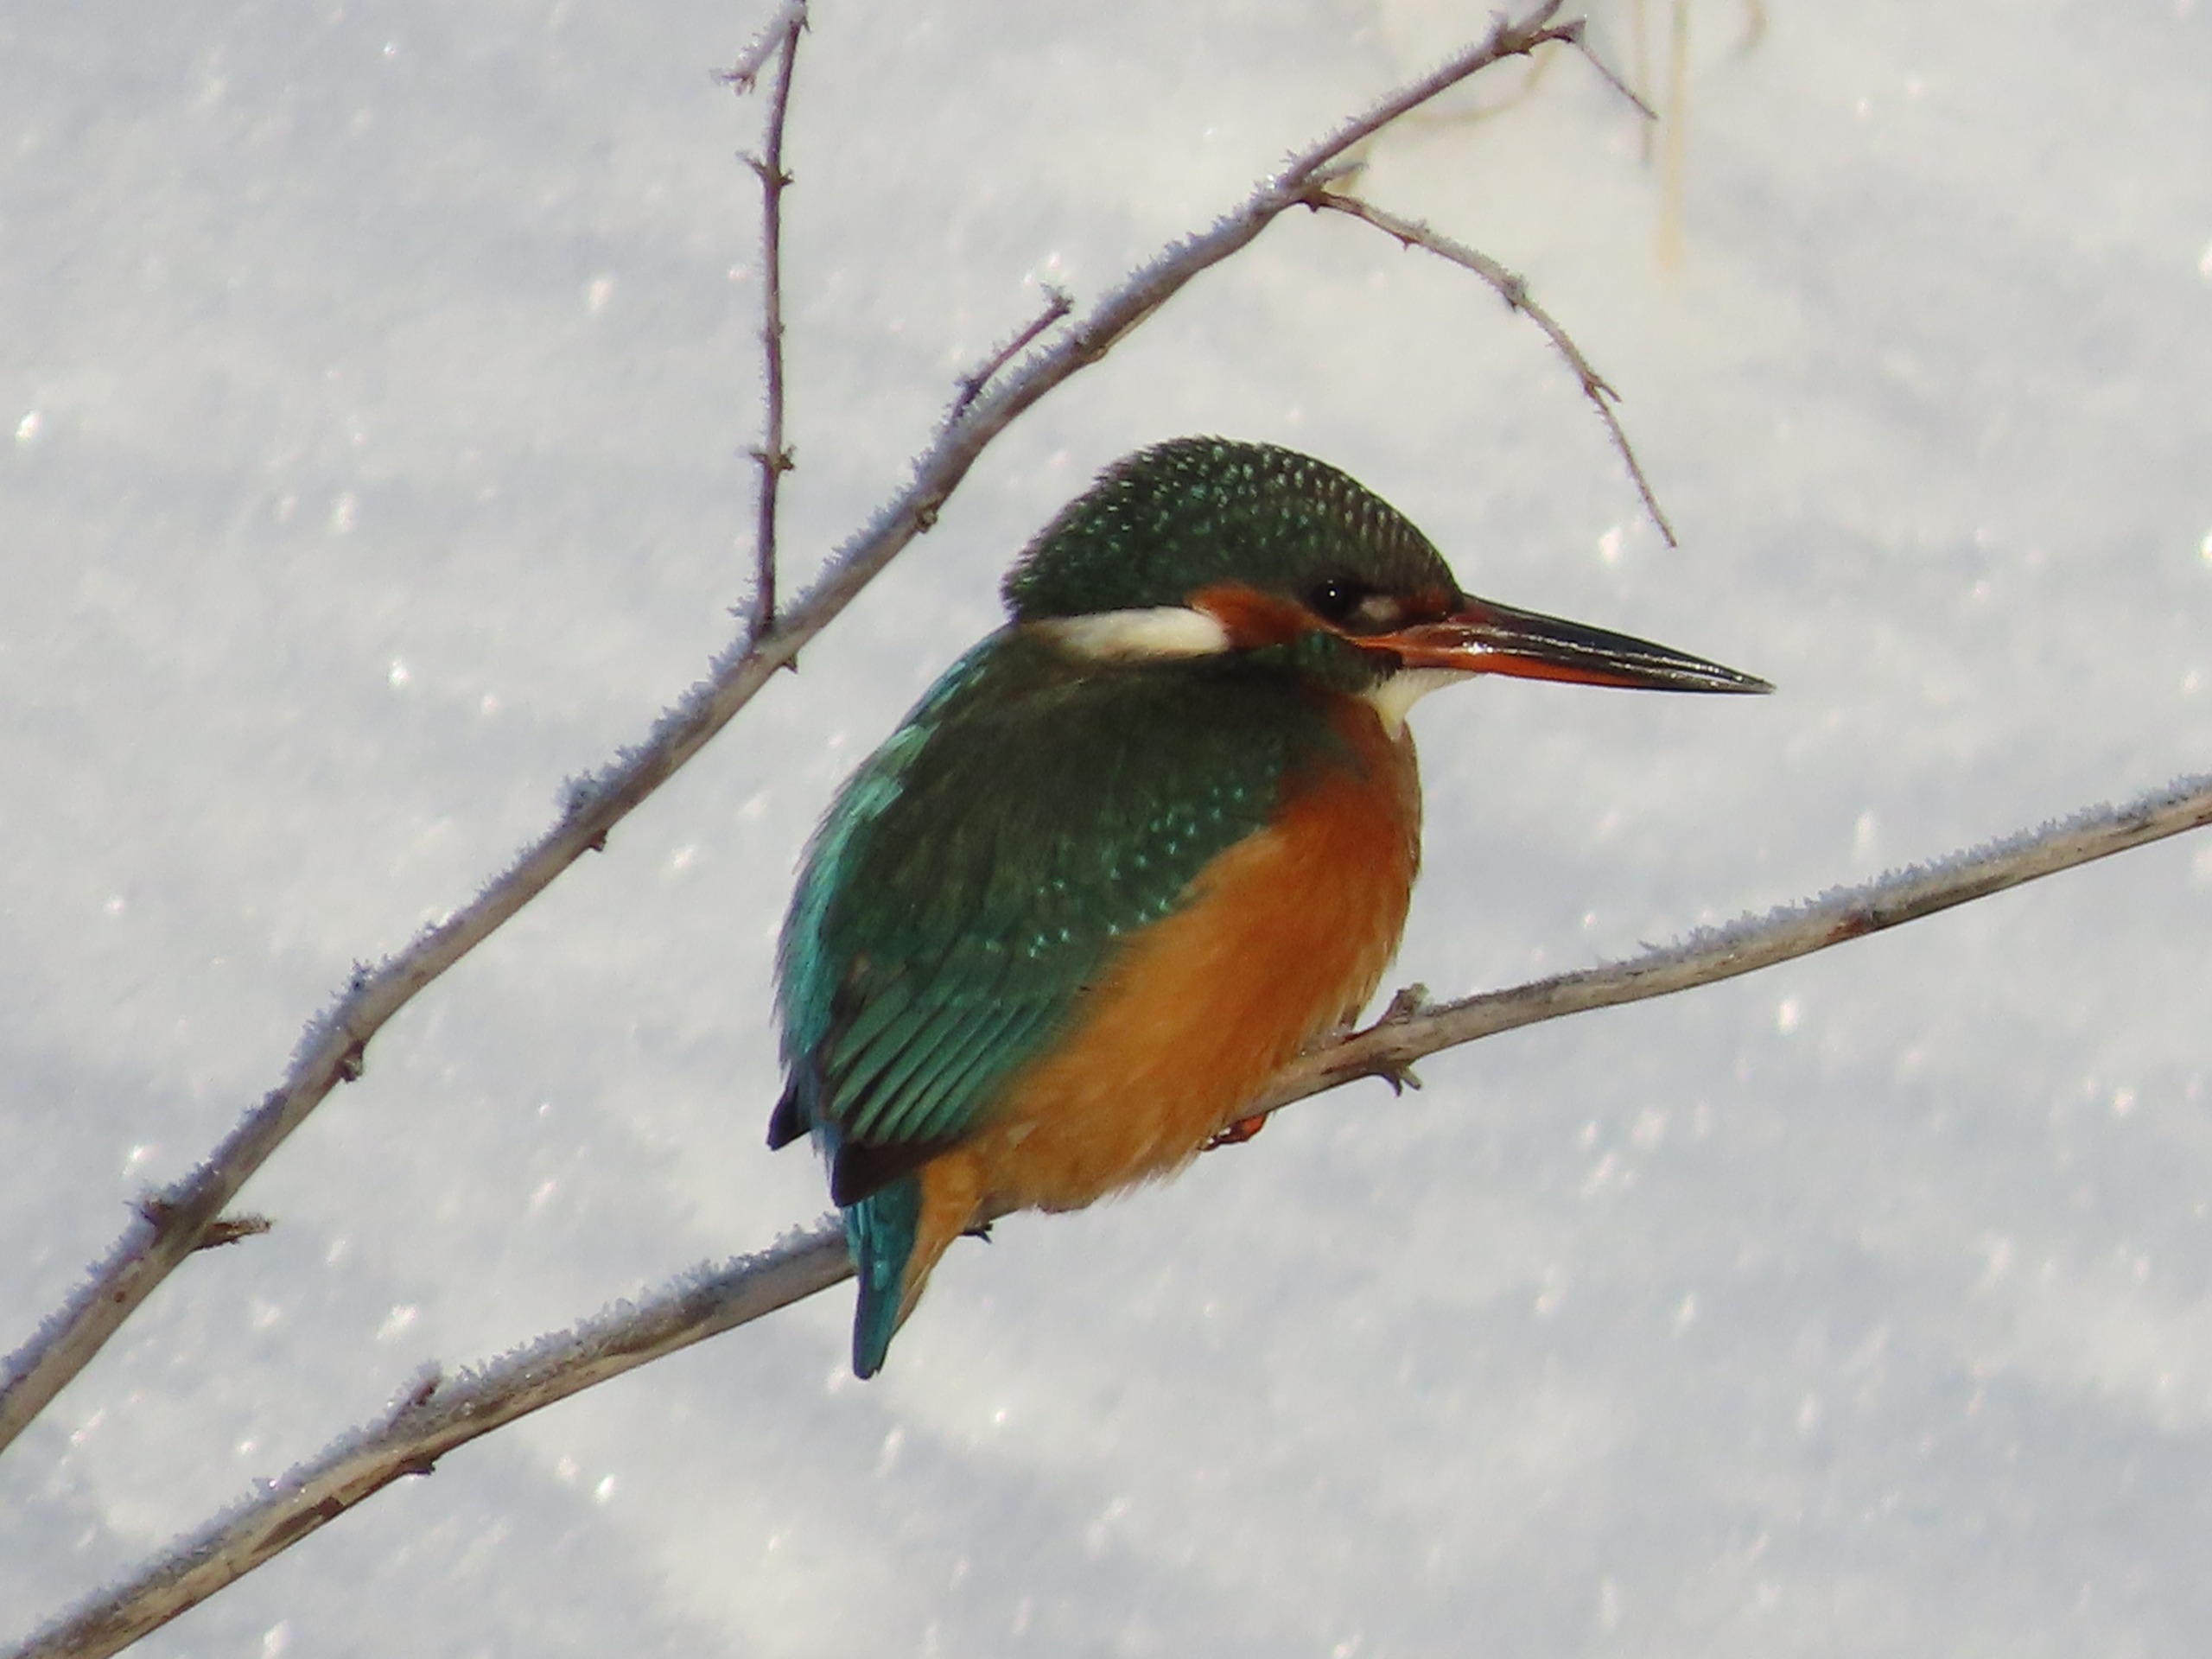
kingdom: Animalia
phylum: Chordata
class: Aves
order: Coraciiformes
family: Alcedinidae
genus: Alcedo
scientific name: Alcedo atthis
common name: Isfugl
